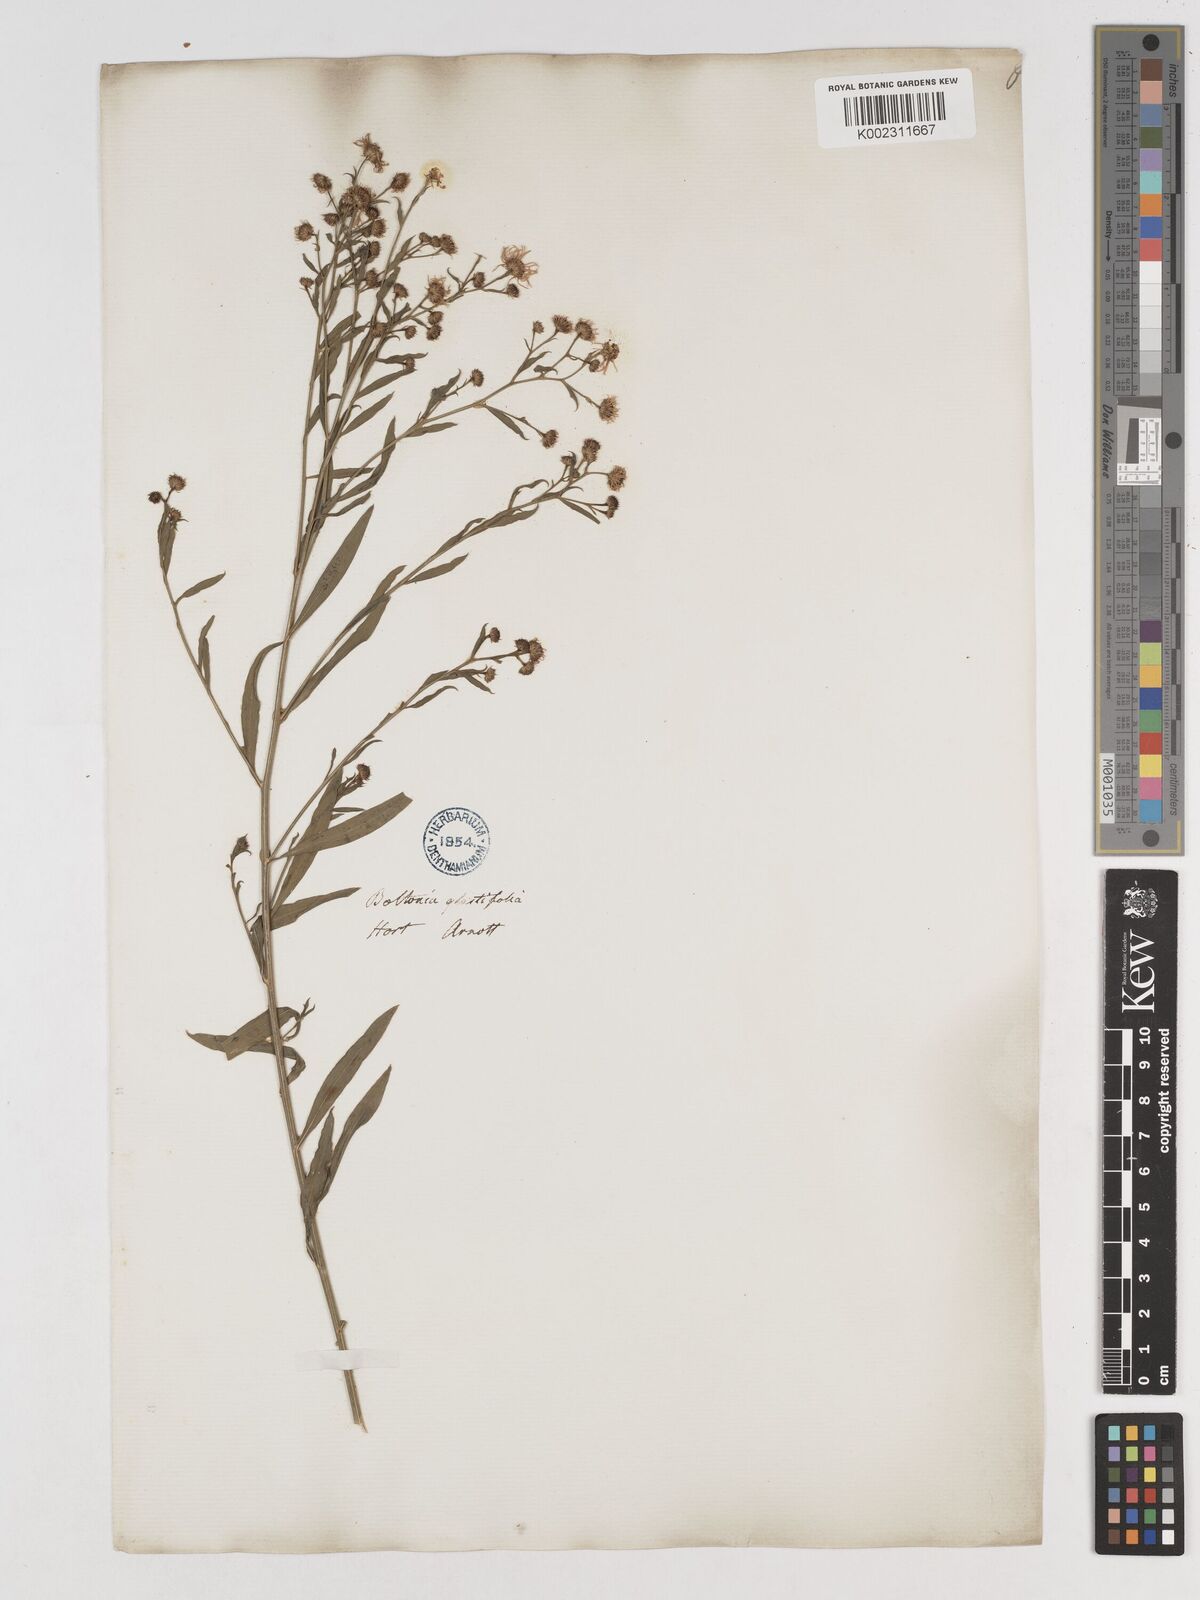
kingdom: Plantae
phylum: Tracheophyta
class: Magnoliopsida
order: Asterales
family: Asteraceae
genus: Boltonia
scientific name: Boltonia glastifolia
